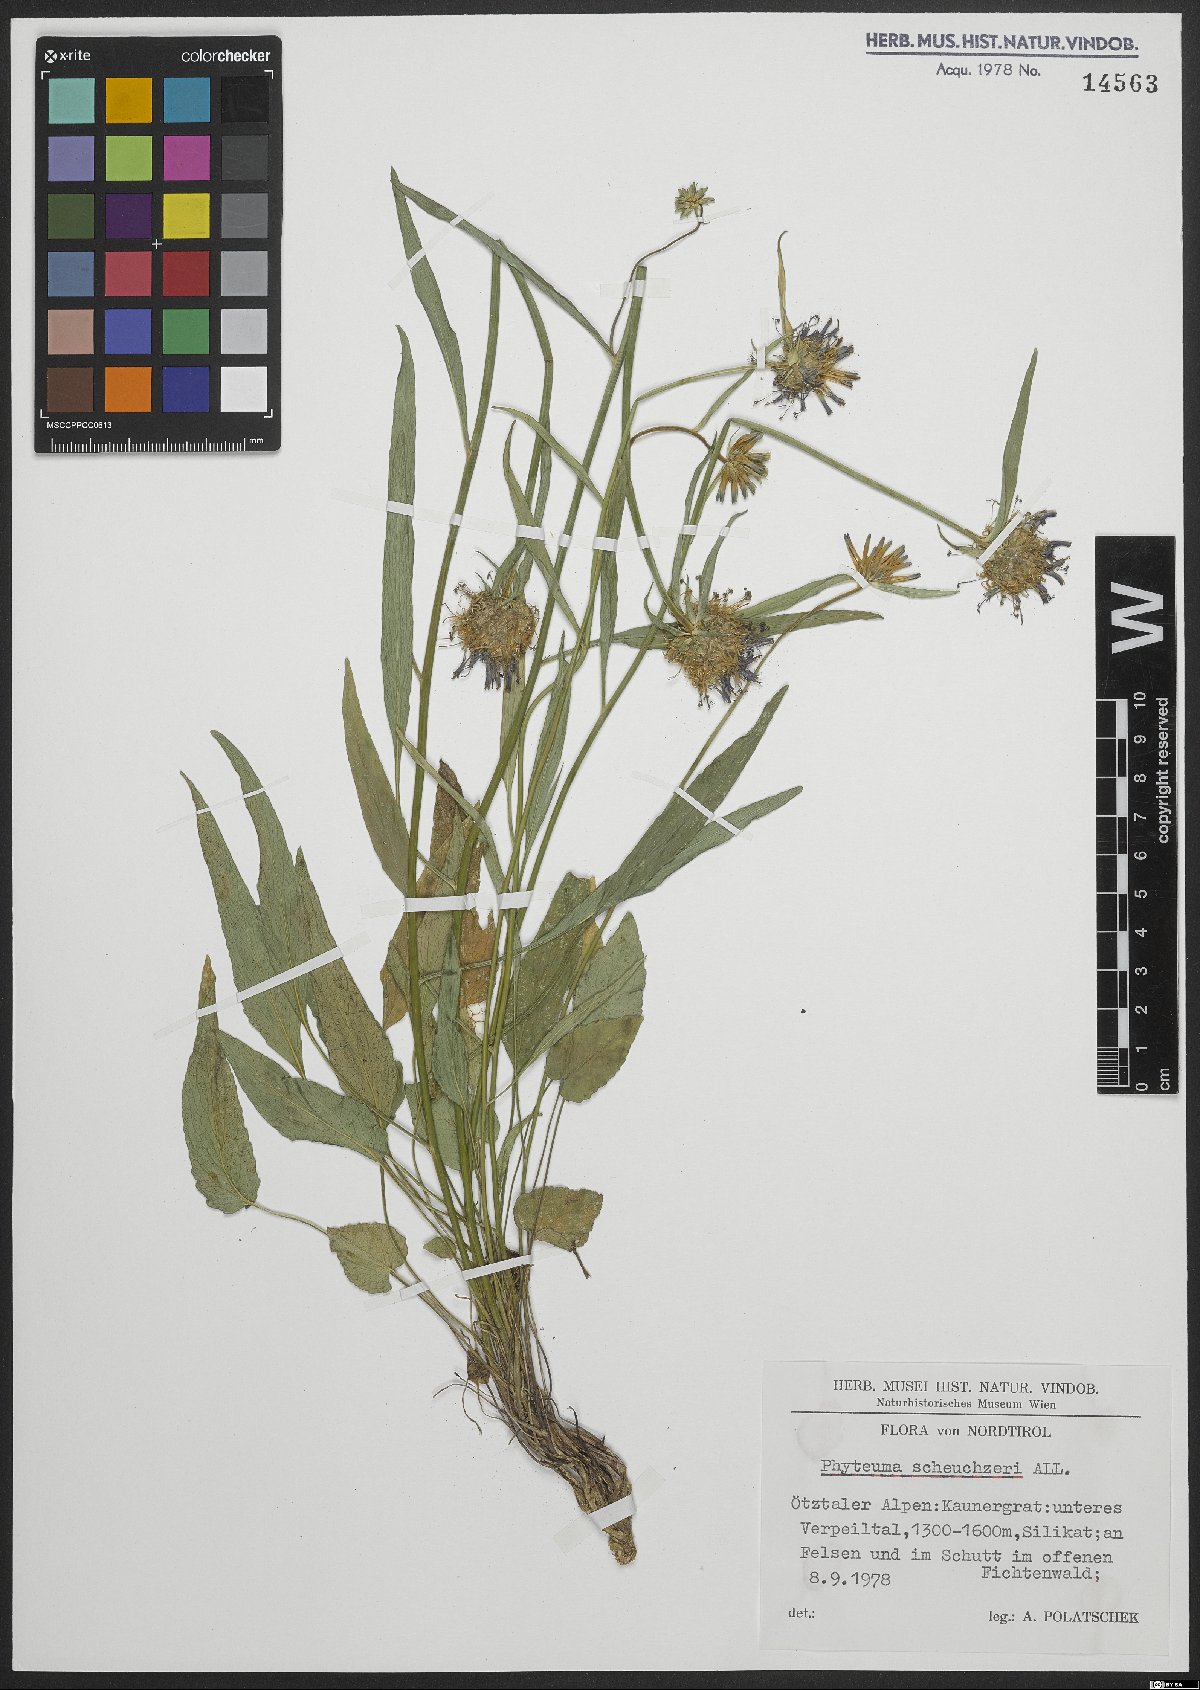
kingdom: Plantae
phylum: Tracheophyta
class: Magnoliopsida
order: Asterales
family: Campanulaceae
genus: Phyteuma
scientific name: Phyteuma scheuchzeri
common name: Oxford rampion
